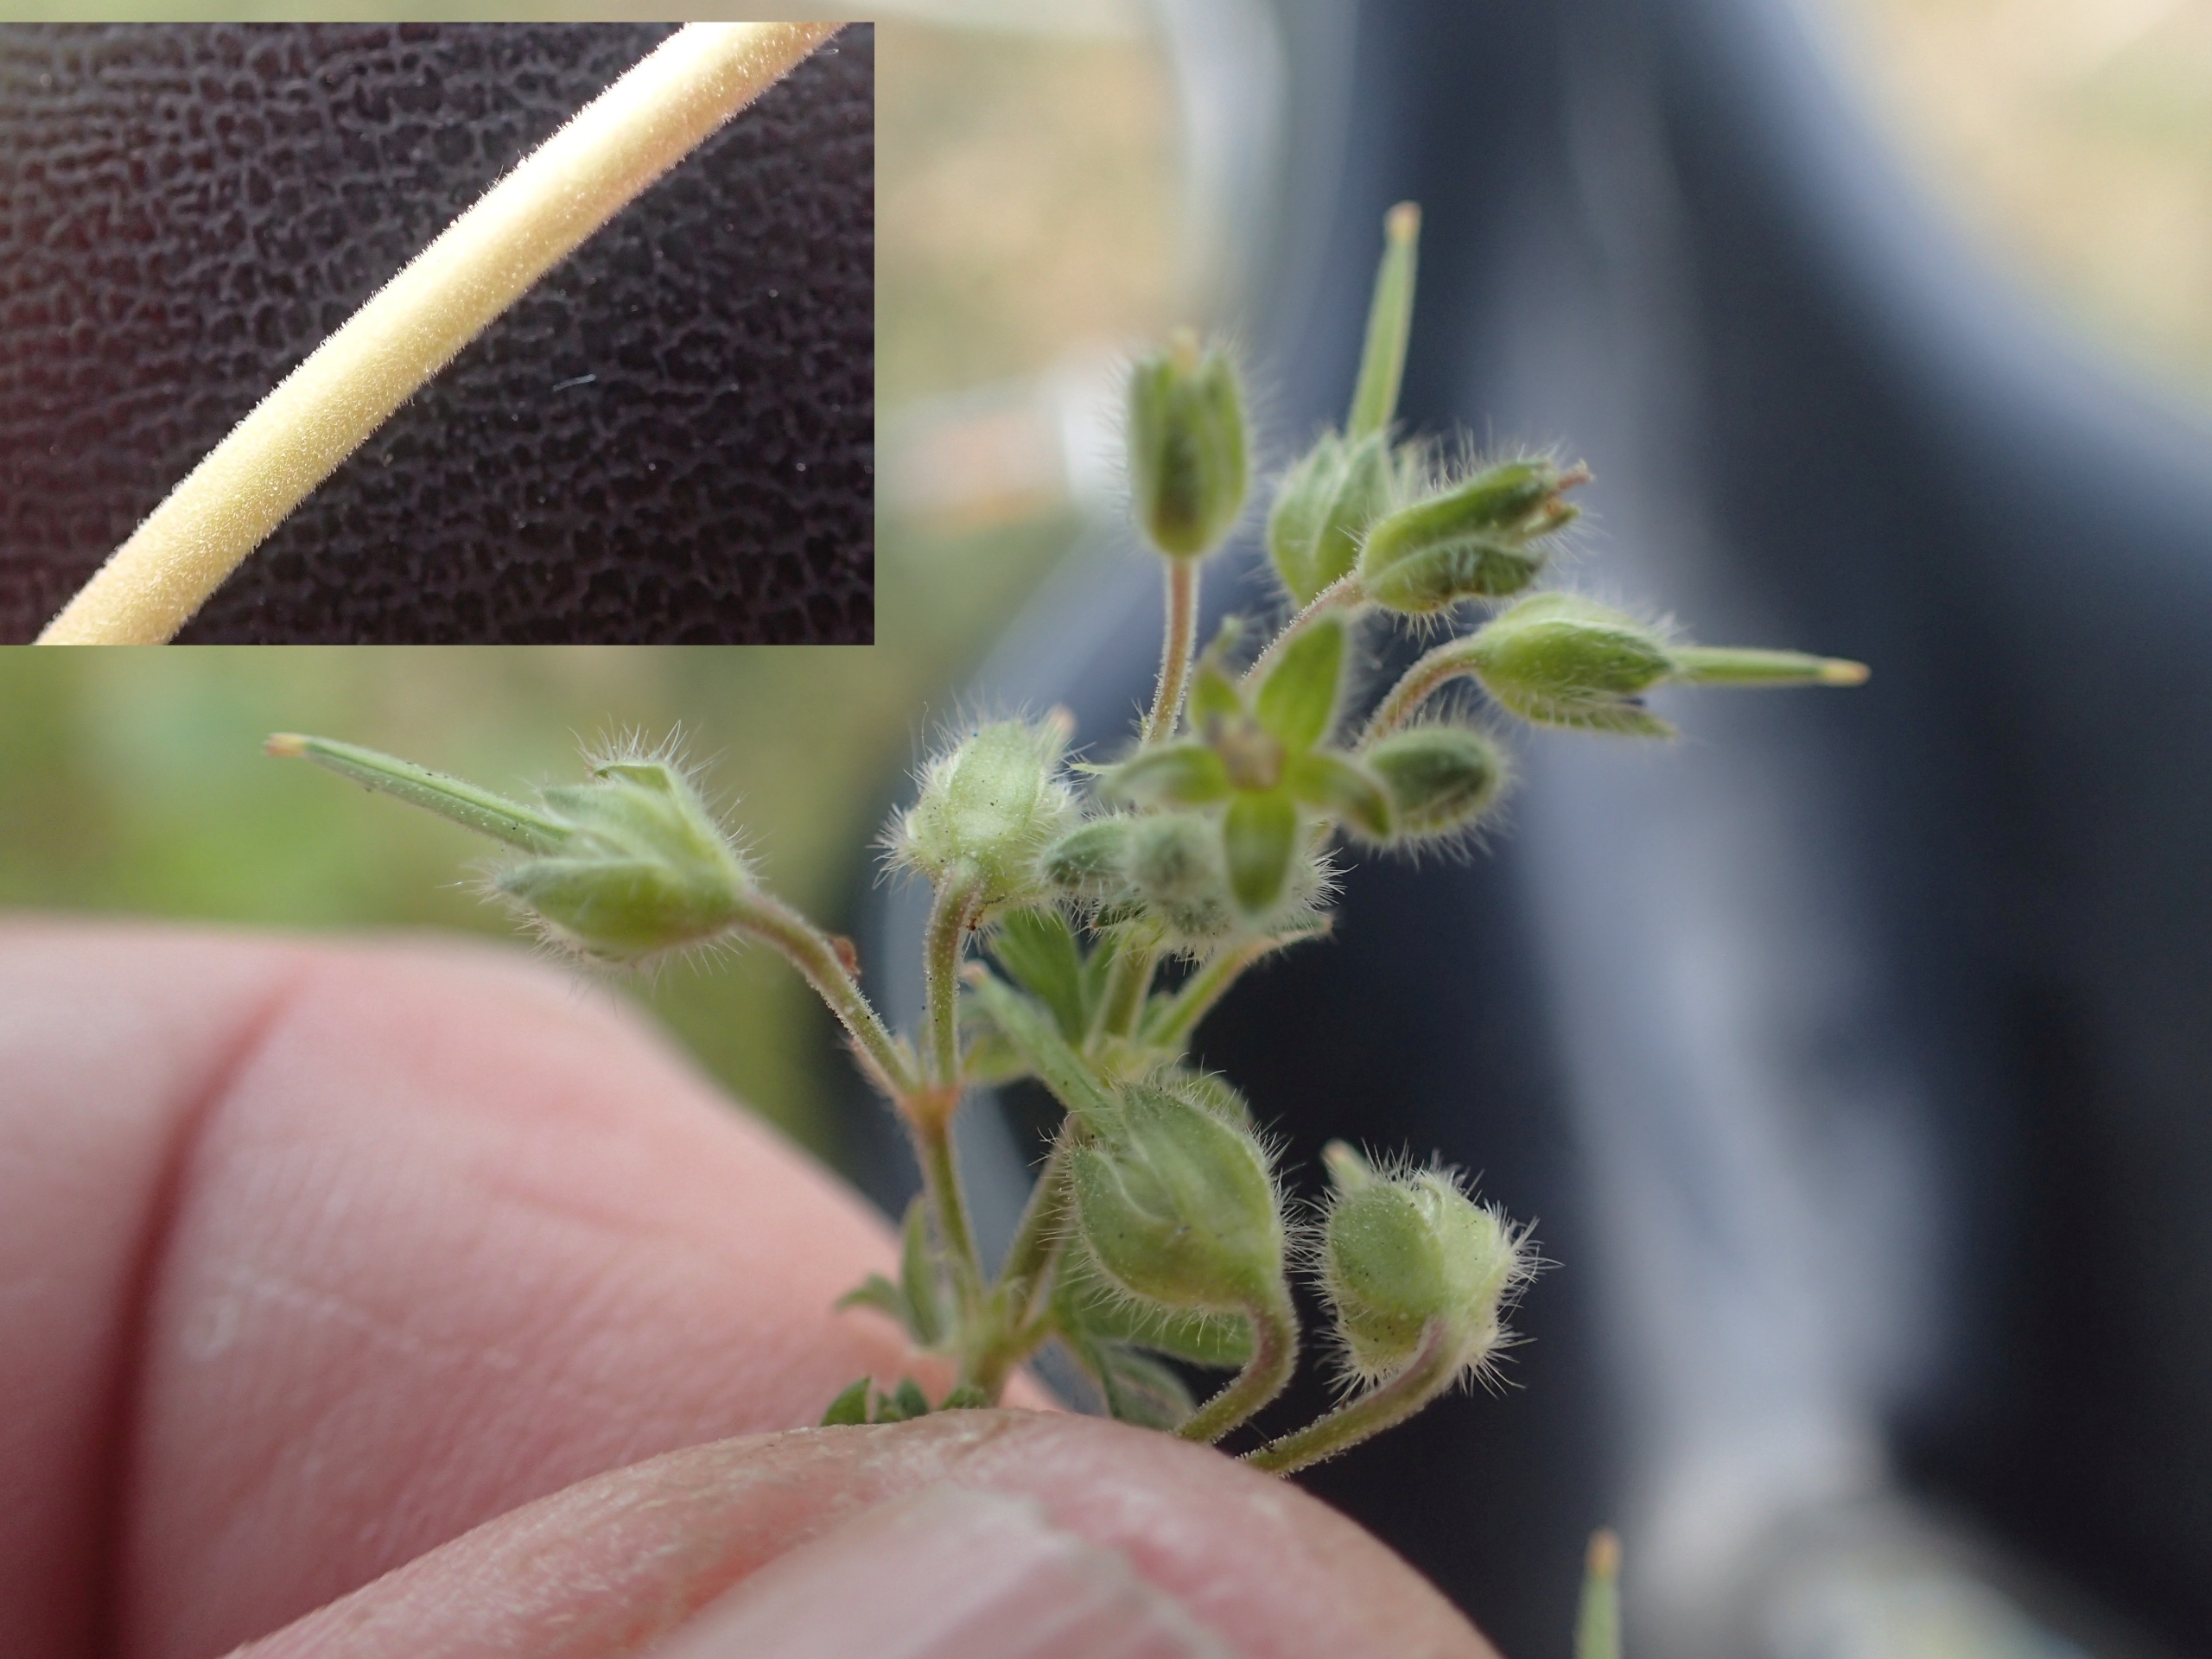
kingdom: Plantae
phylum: Tracheophyta
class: Magnoliopsida
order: Geraniales
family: Geraniaceae
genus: Geranium
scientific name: Geranium pusillum
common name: Liden storkenæb
